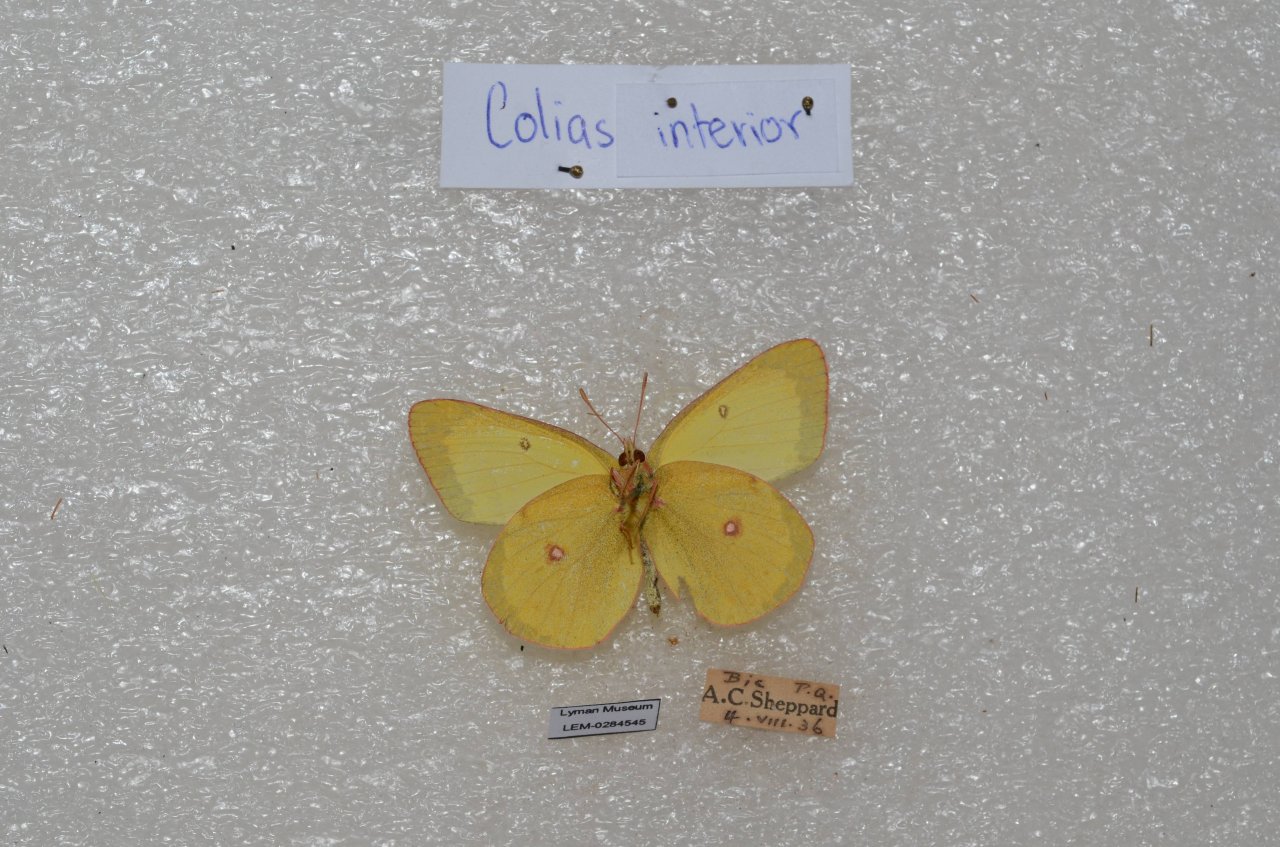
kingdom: Animalia
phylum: Arthropoda
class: Insecta
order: Lepidoptera
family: Pieridae
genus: Colias
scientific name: Colias interior
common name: Pink-edged Sulphur
